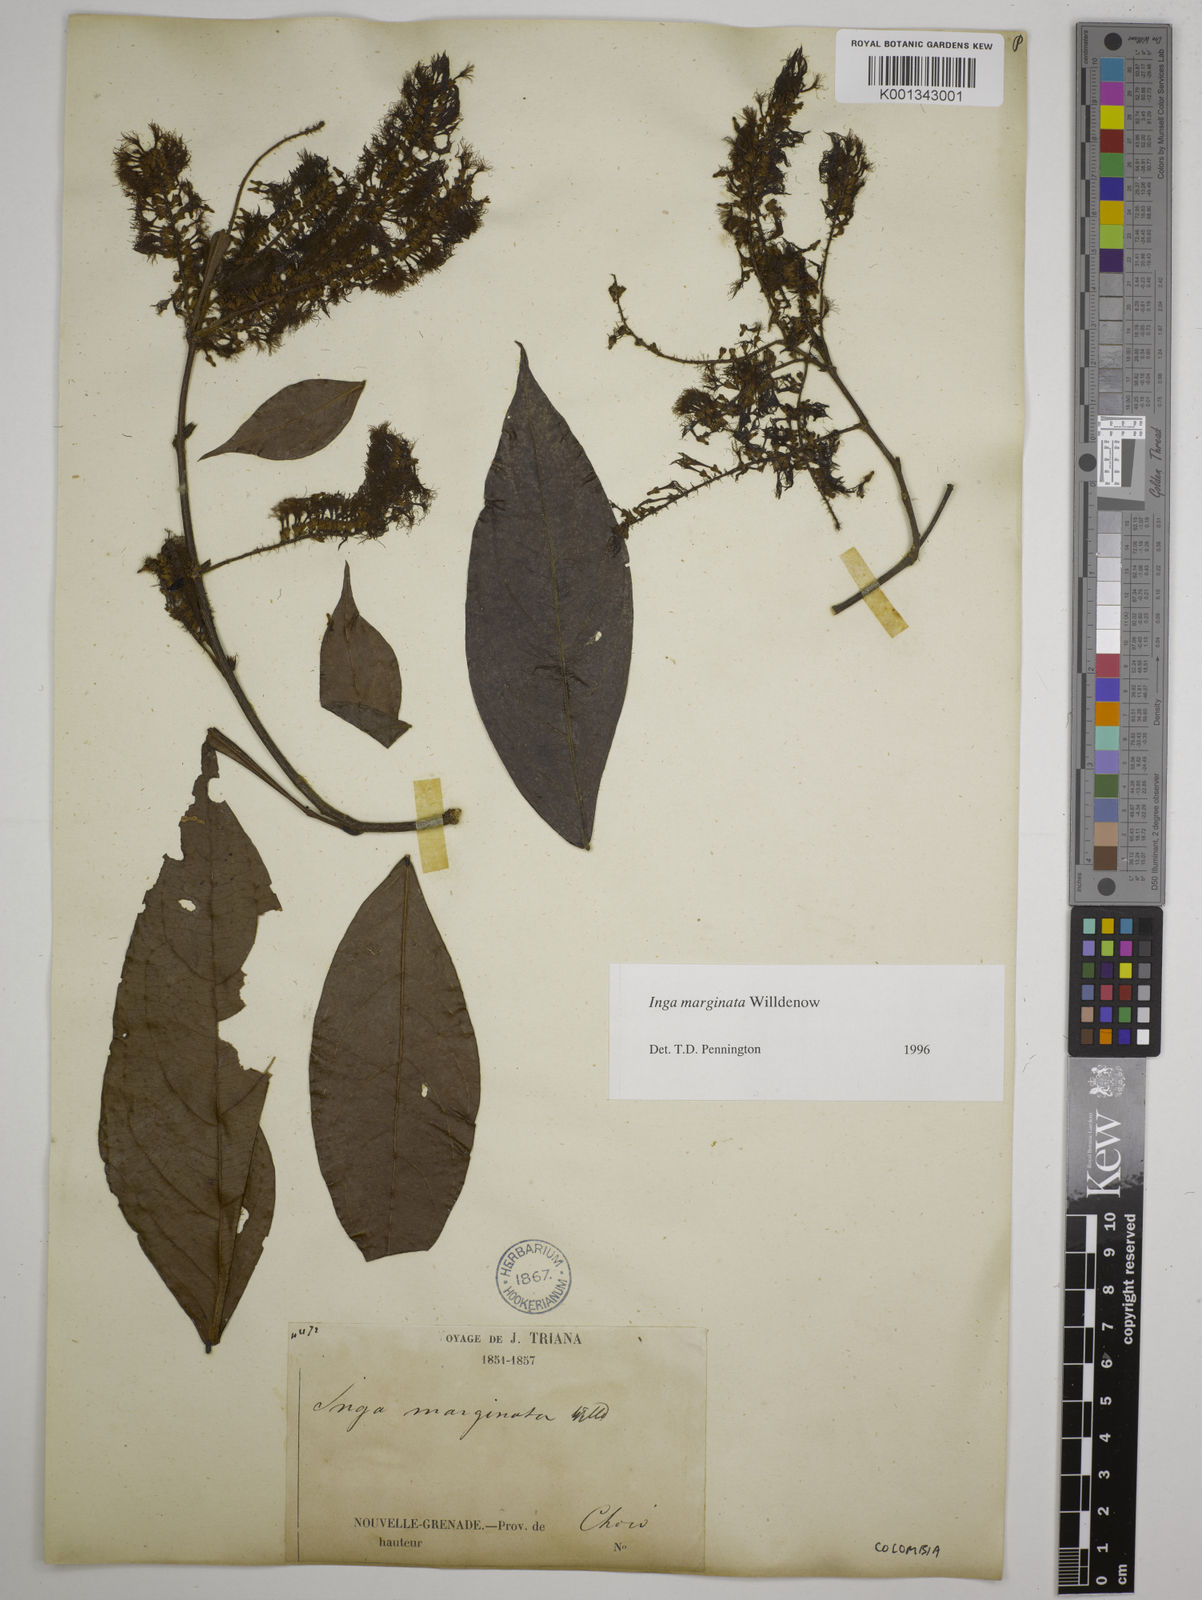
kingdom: Plantae
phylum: Tracheophyta
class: Magnoliopsida
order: Fabales
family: Fabaceae
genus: Inga
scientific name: Inga marginata
